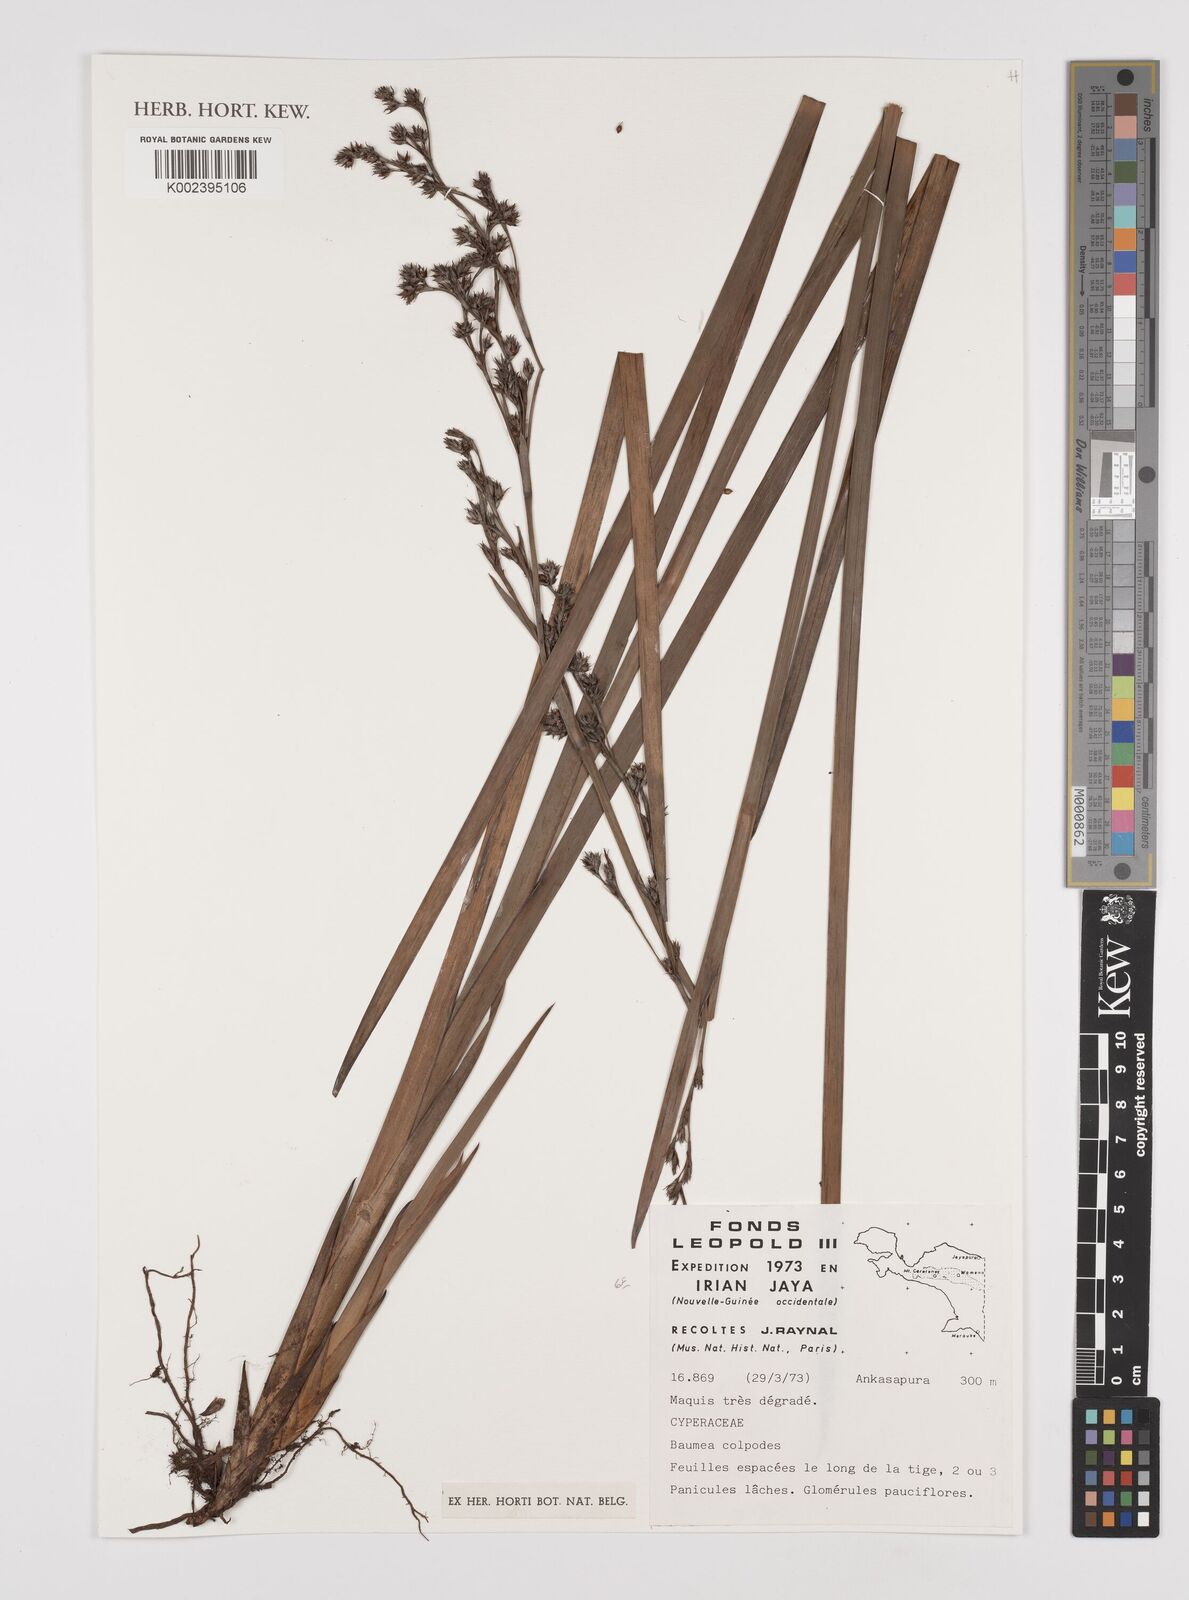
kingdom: Plantae
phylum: Tracheophyta
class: Liliopsida
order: Poales
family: Cyperaceae
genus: Machaerina
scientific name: Machaerina glomerata
